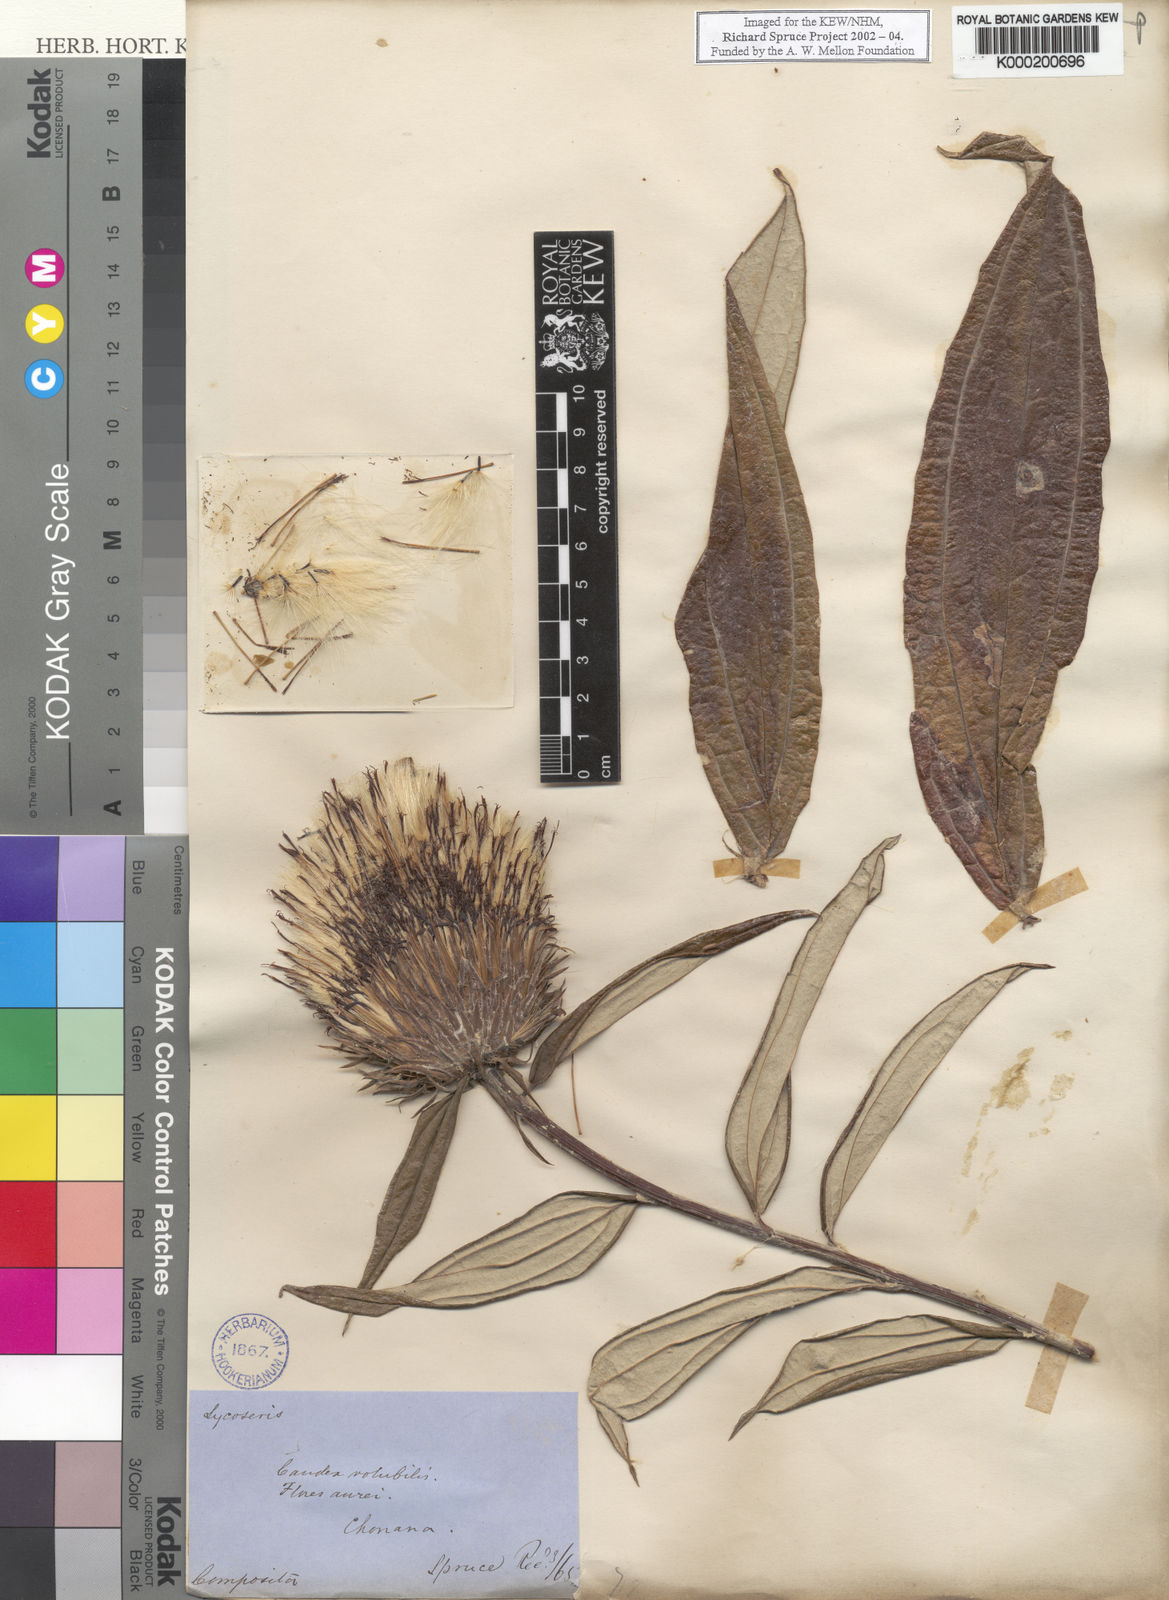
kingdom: Plantae
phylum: Tracheophyta
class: Magnoliopsida
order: Asterales
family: Asteraceae
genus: Lycoseris
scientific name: Lycoseris
